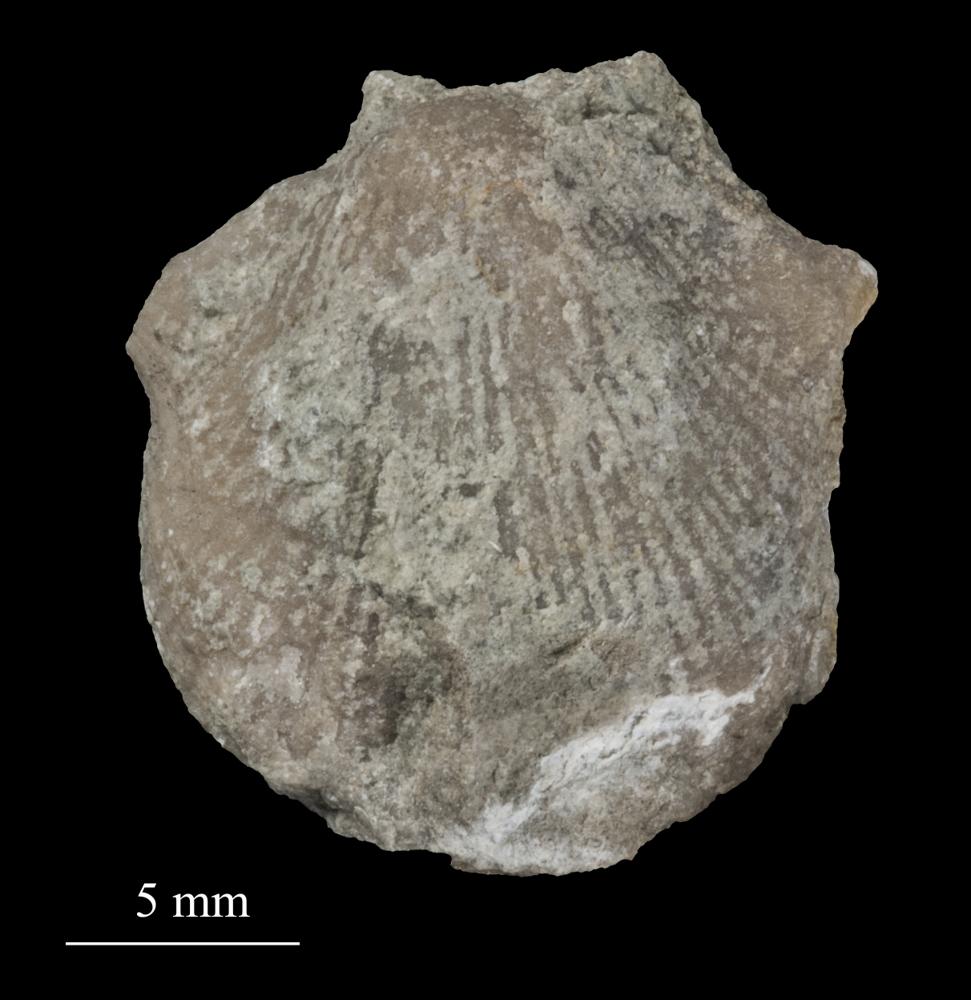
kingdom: Animalia
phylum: Brachiopoda
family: Gonambonitidae
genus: Estlandia
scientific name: Estlandia Orthisina marginata
